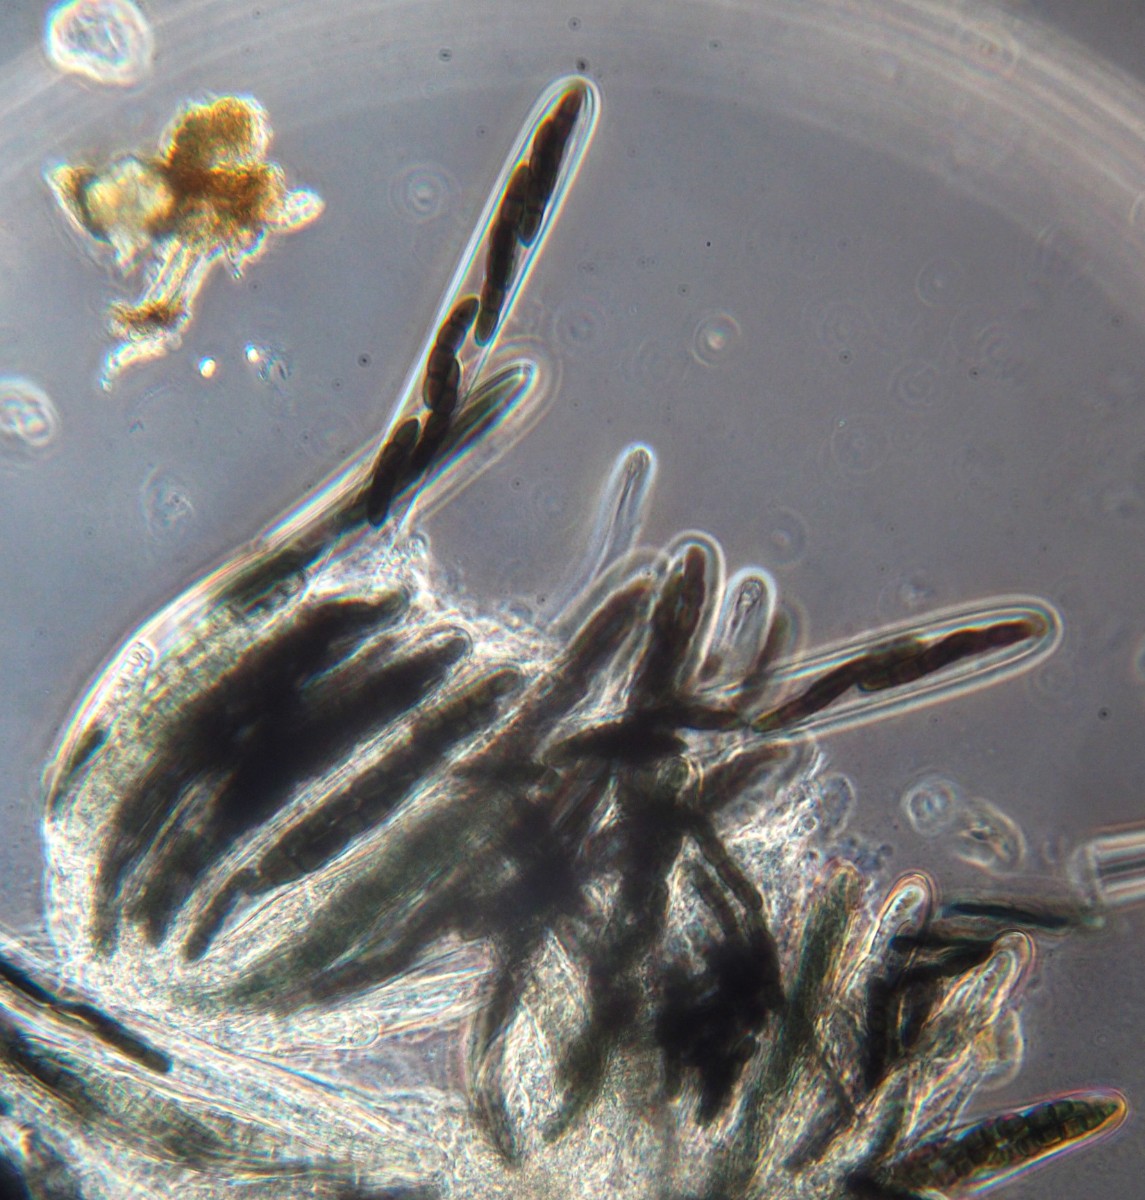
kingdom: Fungi
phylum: Ascomycota
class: Dothideomycetes
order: Pleosporales
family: Sporormiaceae
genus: Sporormiella
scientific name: Sporormiella lageniformis
